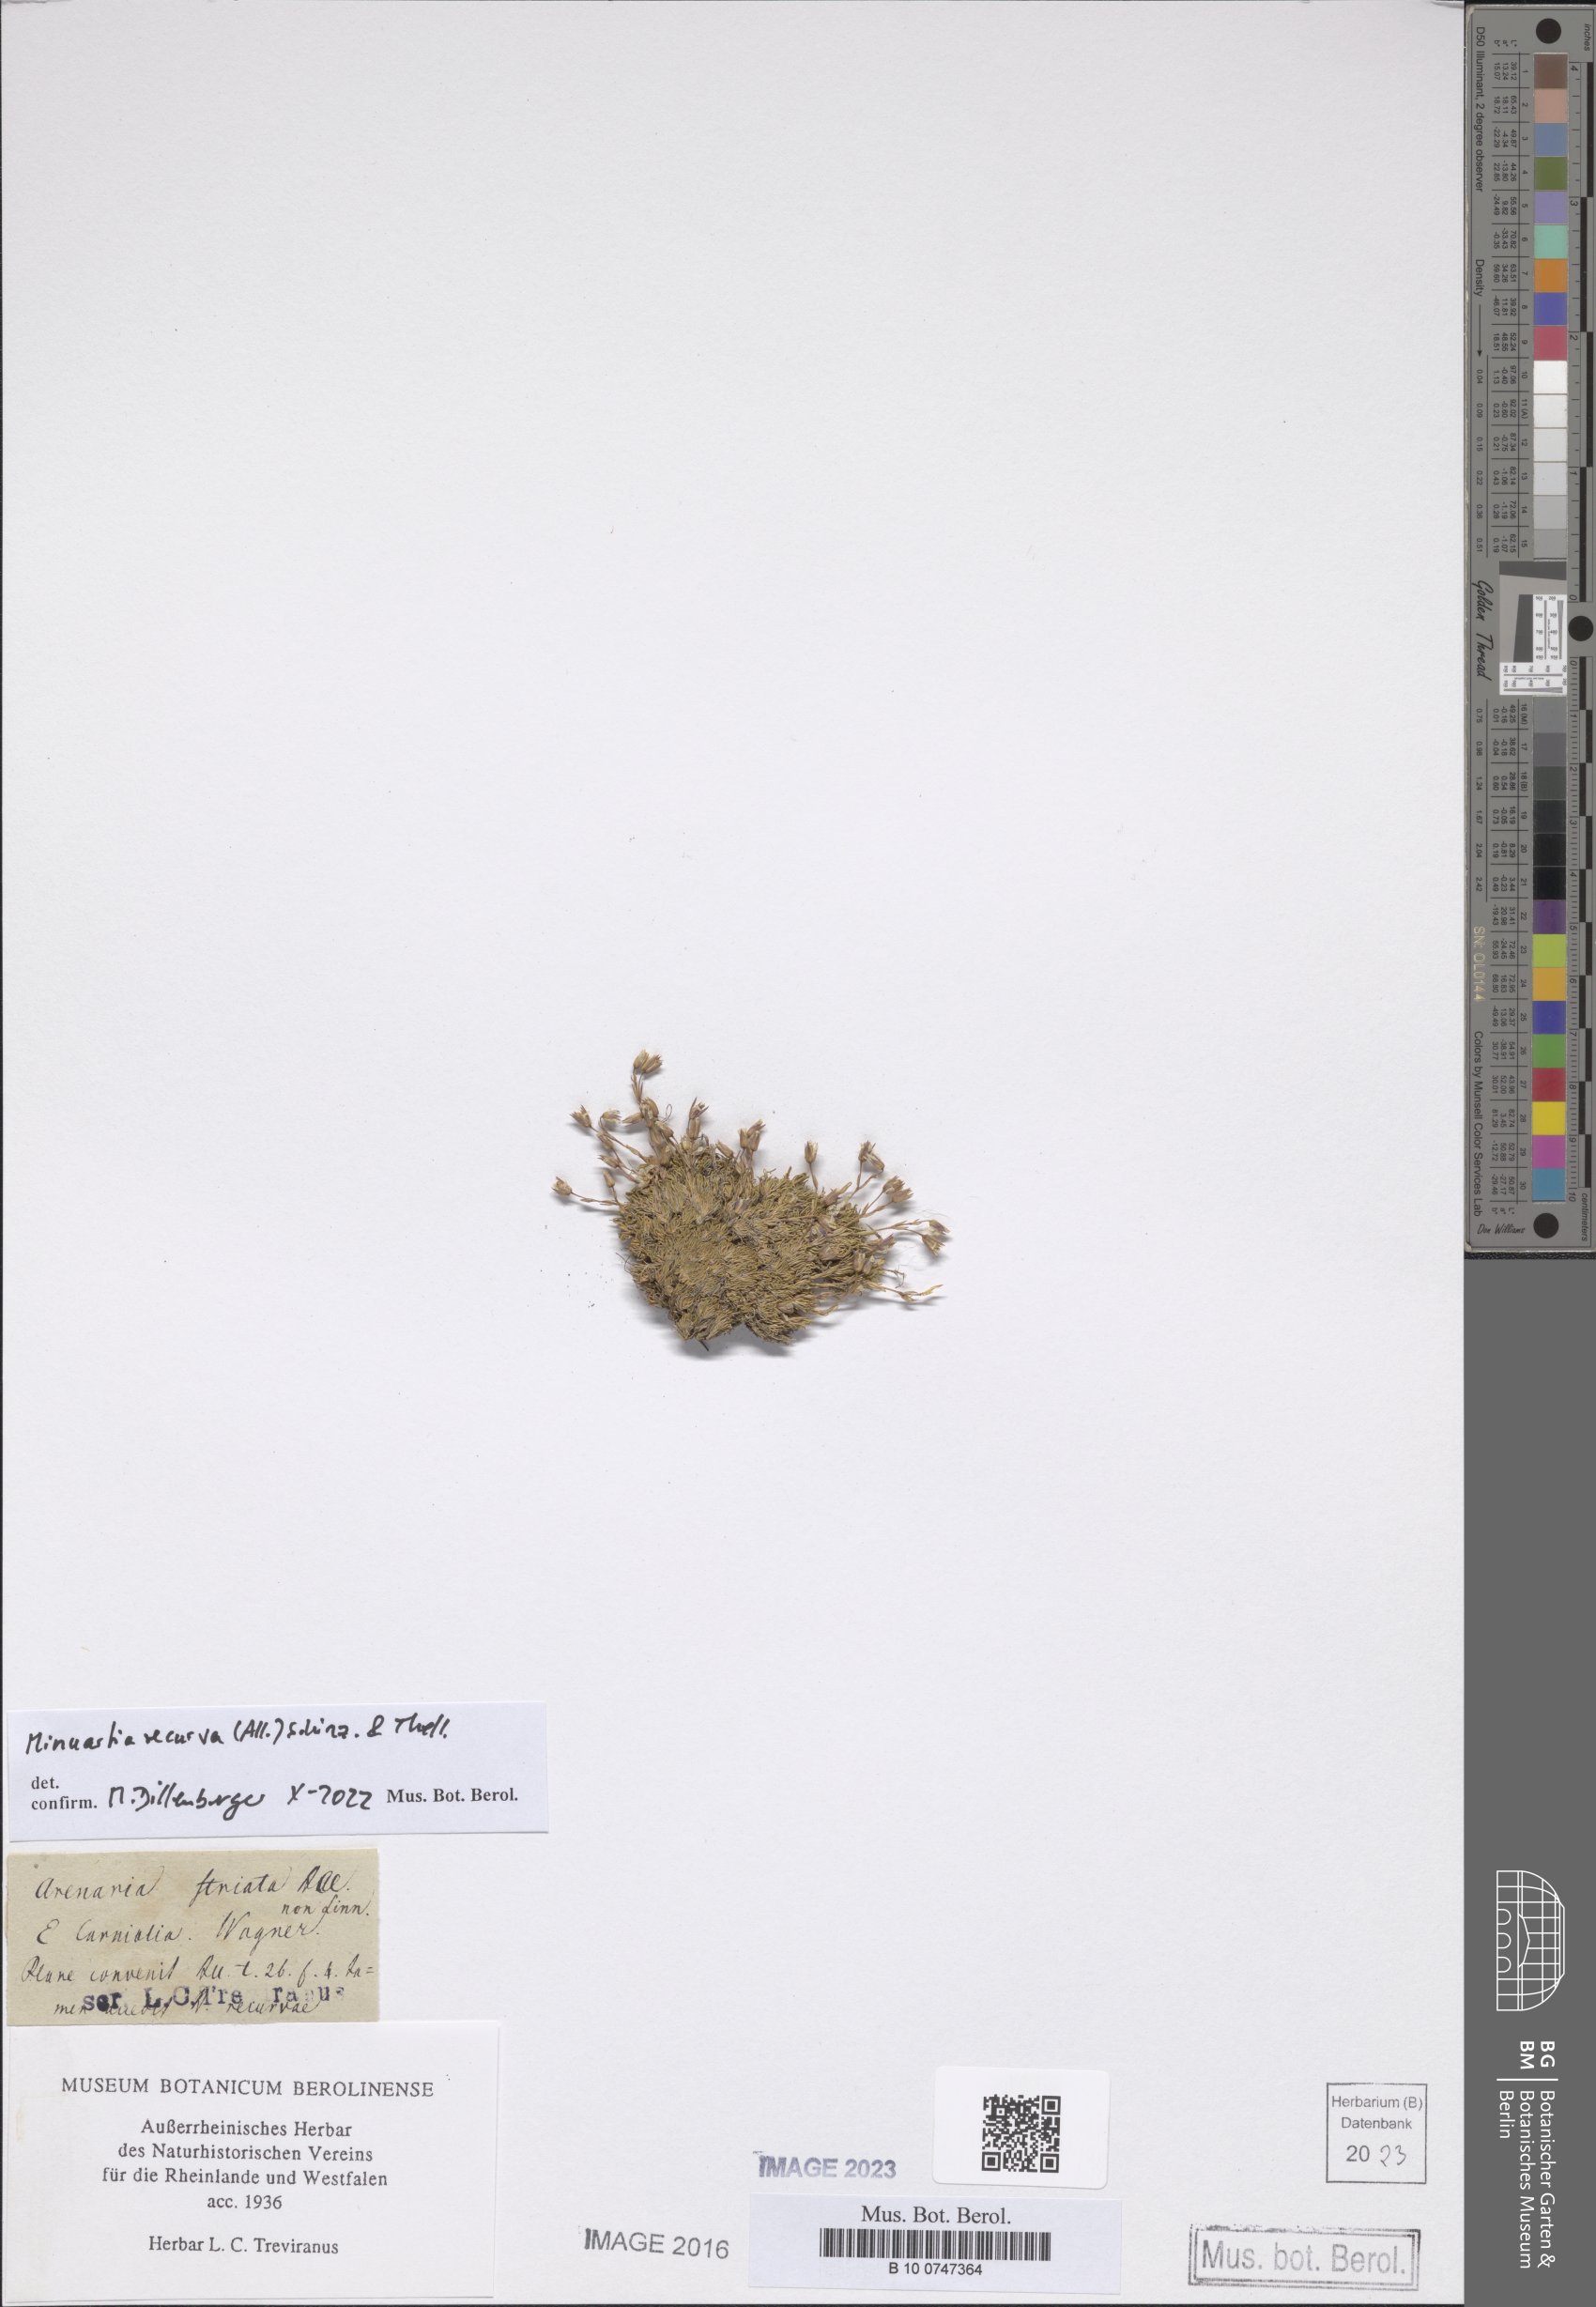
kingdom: Plantae
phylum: Tracheophyta
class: Magnoliopsida
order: Caryophyllales
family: Caryophyllaceae
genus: Minuartia
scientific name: Minuartia recurva
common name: Recurved sandwort
